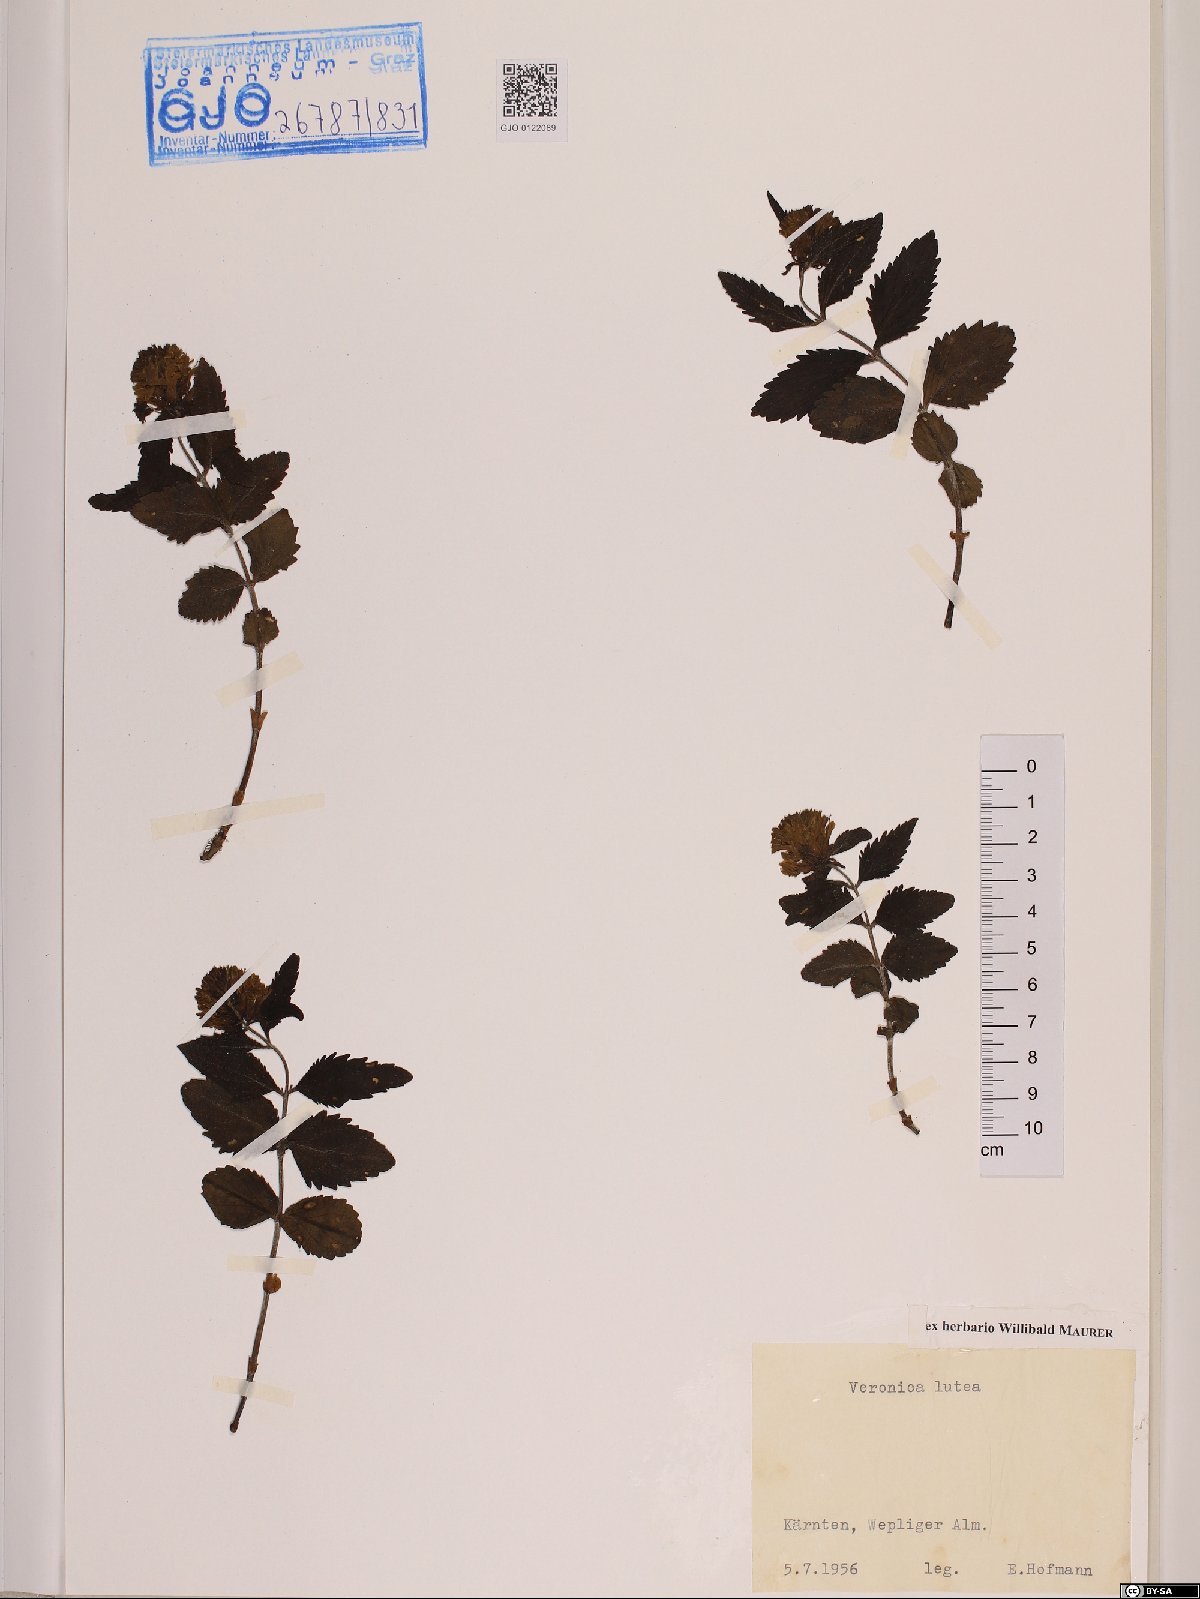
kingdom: Plantae
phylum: Tracheophyta
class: Magnoliopsida
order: Lamiales
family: Plantaginaceae
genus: Paederota
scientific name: Paederota lutea
